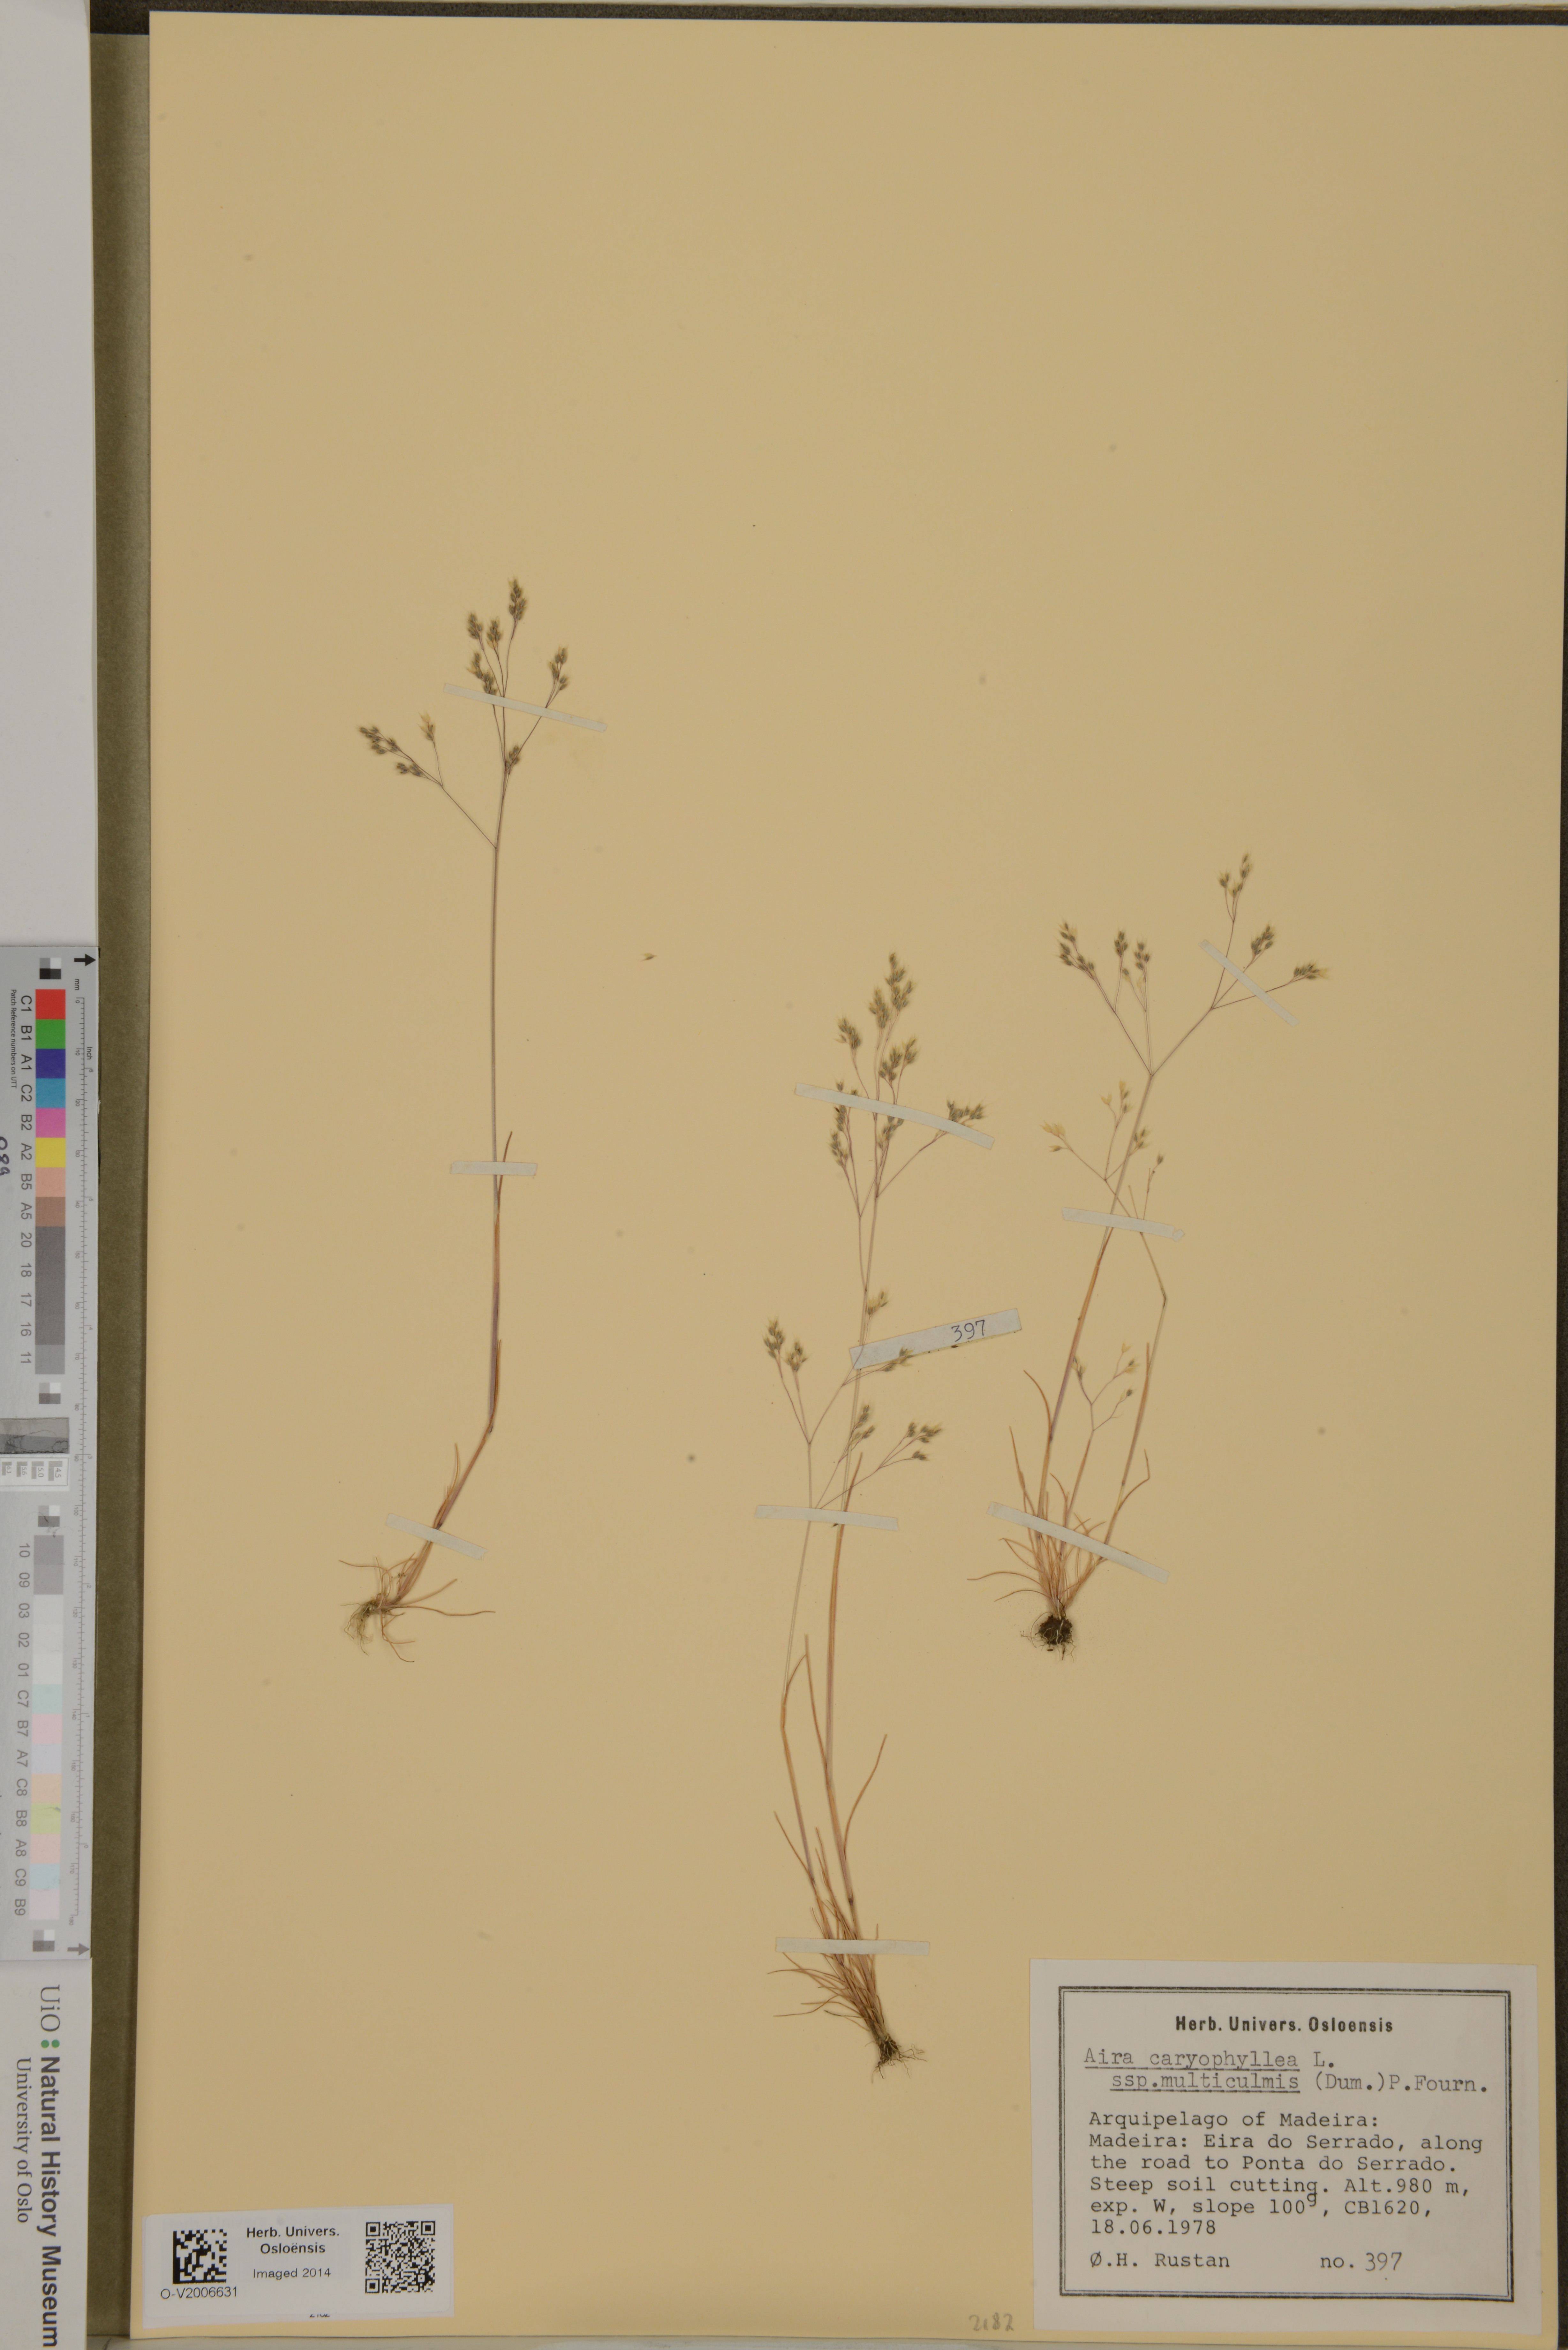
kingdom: Plantae
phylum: Tracheophyta
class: Liliopsida
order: Poales
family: Poaceae
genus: Aira
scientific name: Aira caryophyllea
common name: Silver hairgrass
